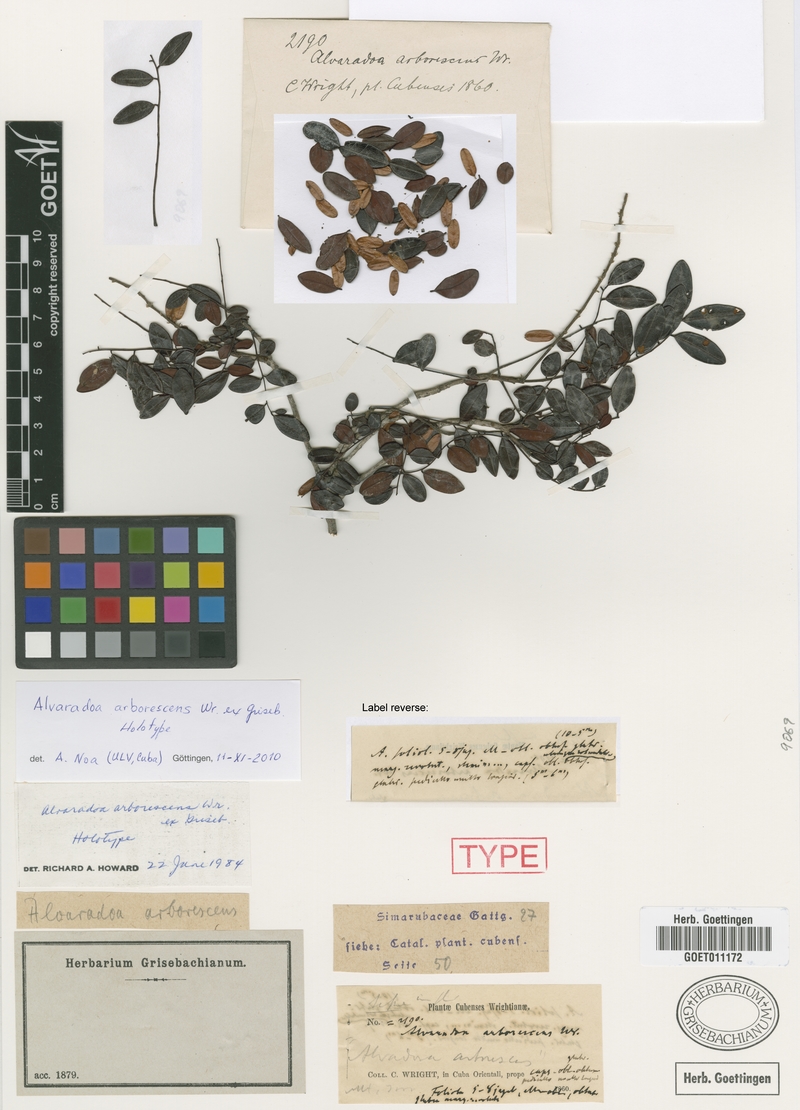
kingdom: Plantae
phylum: Tracheophyta
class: Magnoliopsida
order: Picramniales
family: Picramniaceae
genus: Alvaradoa
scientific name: Alvaradoa arborescens
